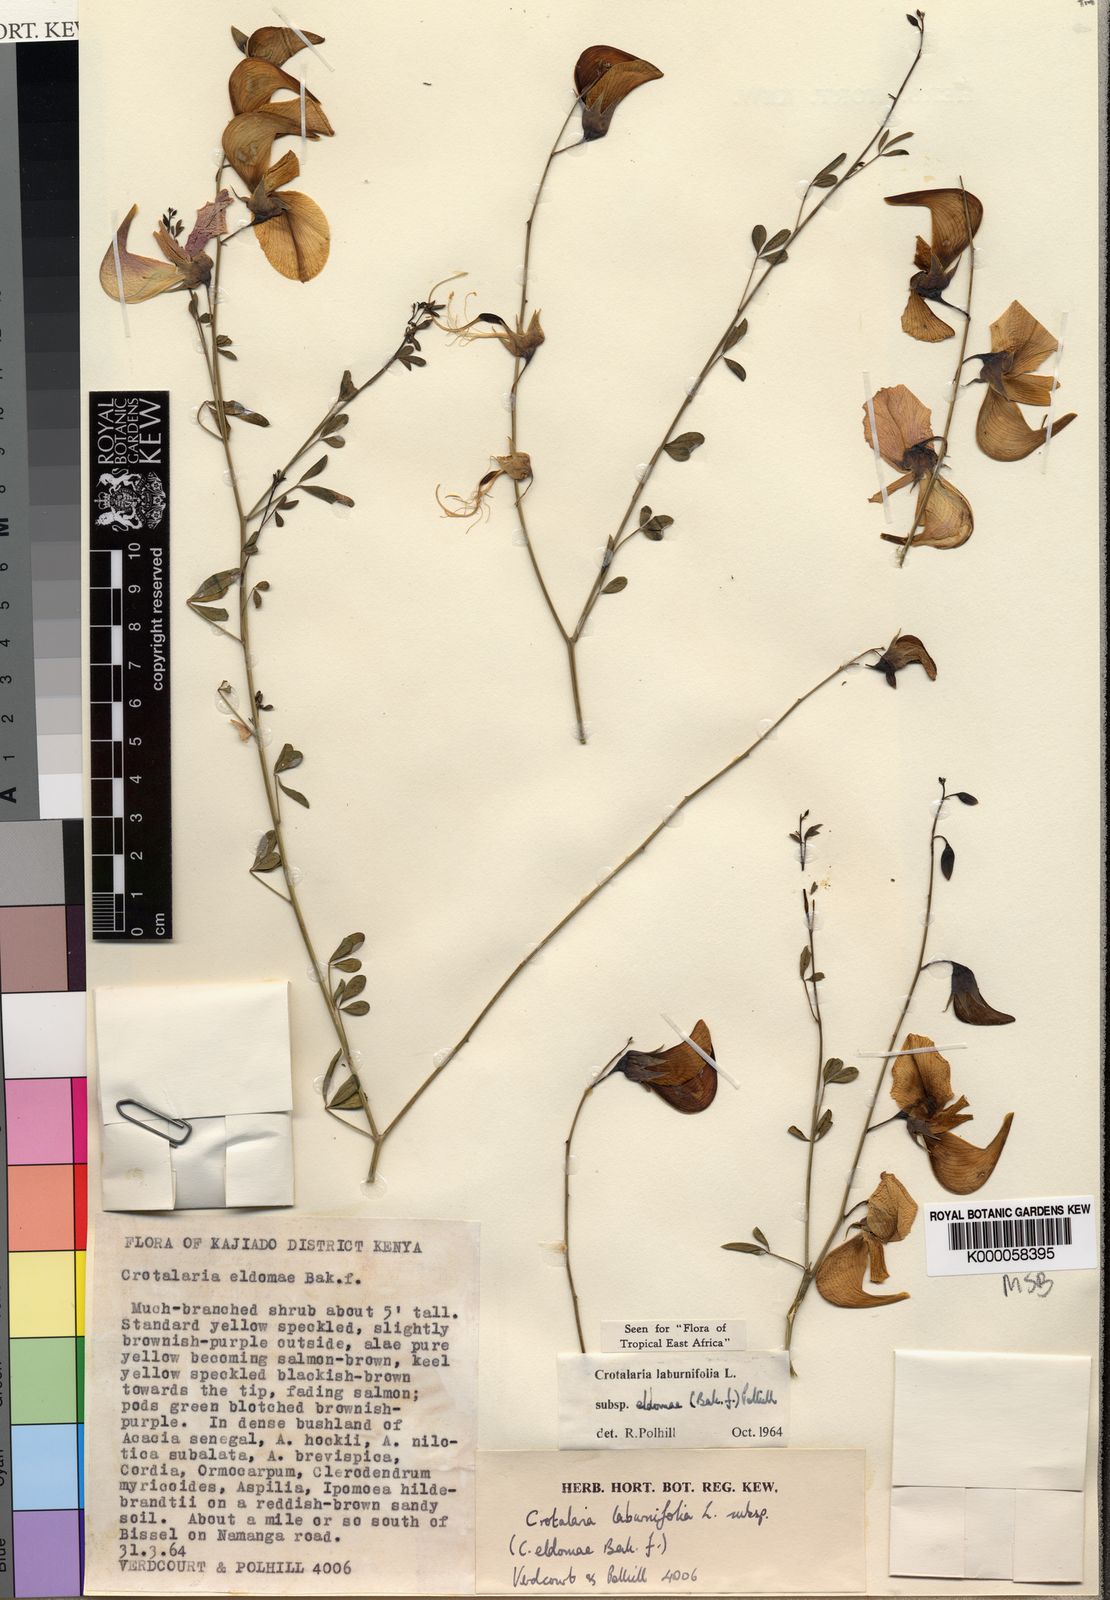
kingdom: Plantae
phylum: Tracheophyta
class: Magnoliopsida
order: Fabales
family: Fabaceae
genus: Crotalaria
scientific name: Crotalaria laburnifolia
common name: Birdflower
